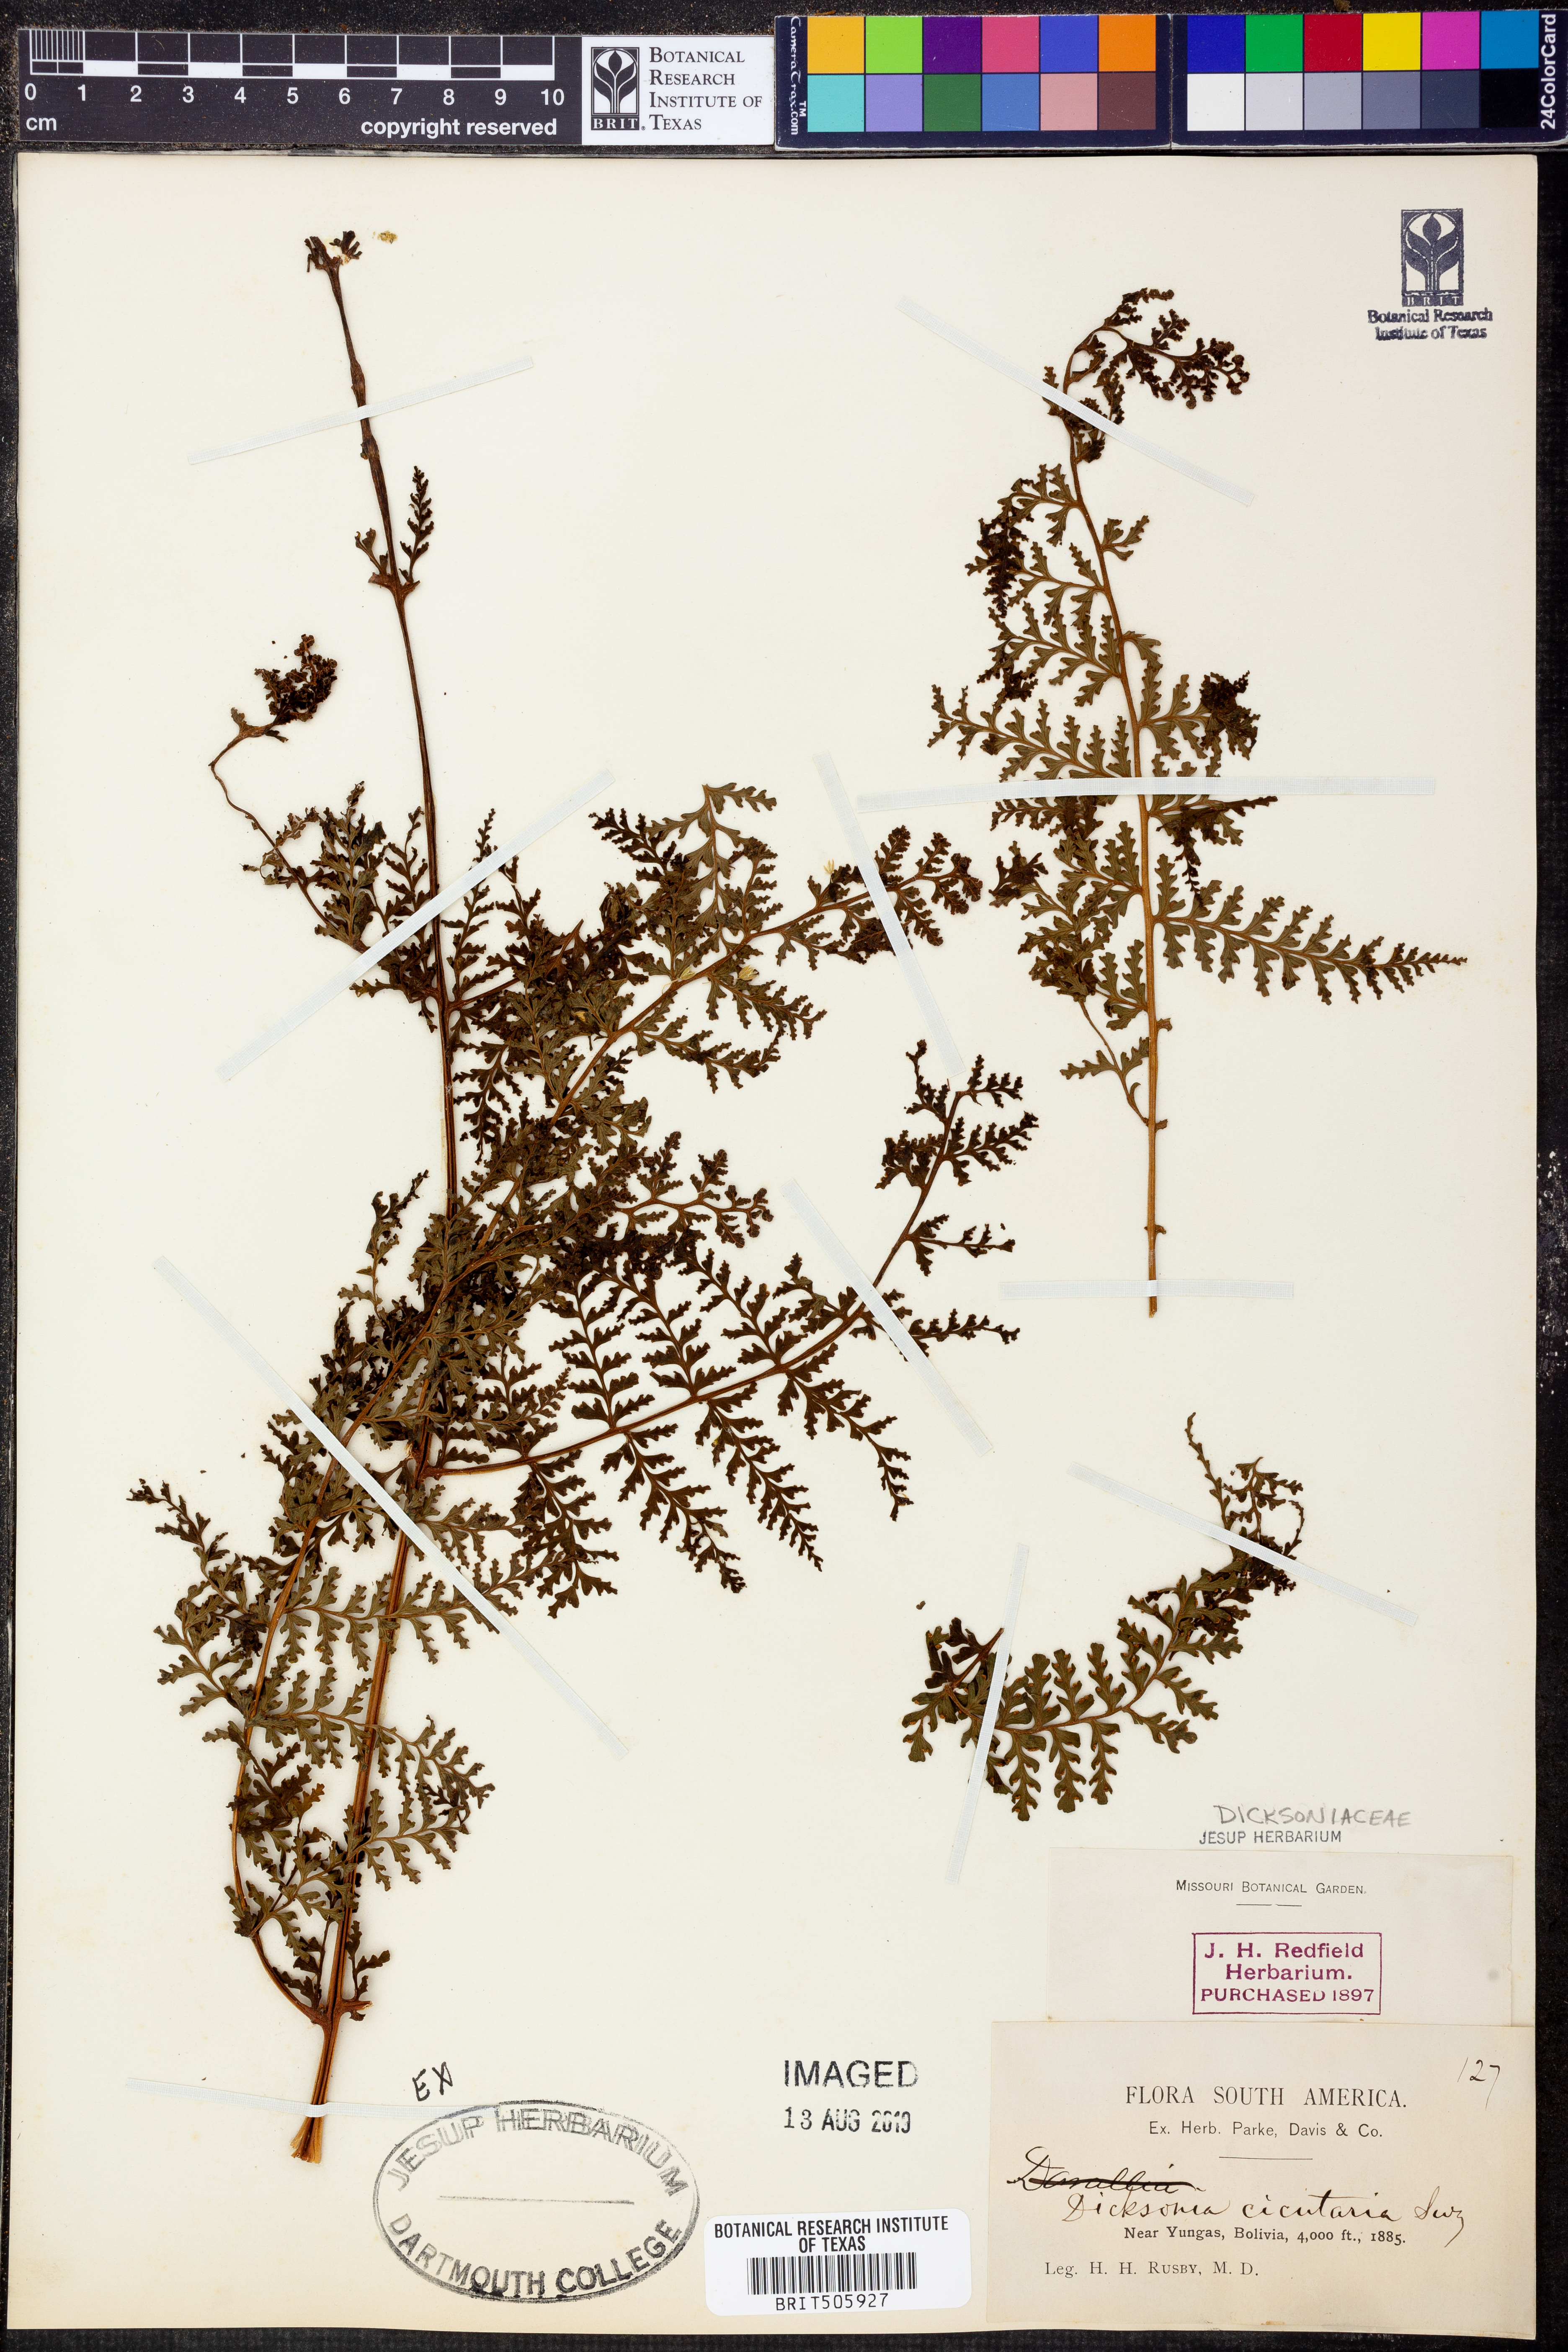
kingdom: Plantae
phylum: Tracheophyta
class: Polypodiopsida
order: Polypodiales
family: Dennstaedtiaceae
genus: Dennstaedtia
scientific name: Dennstaedtia cicutaria
